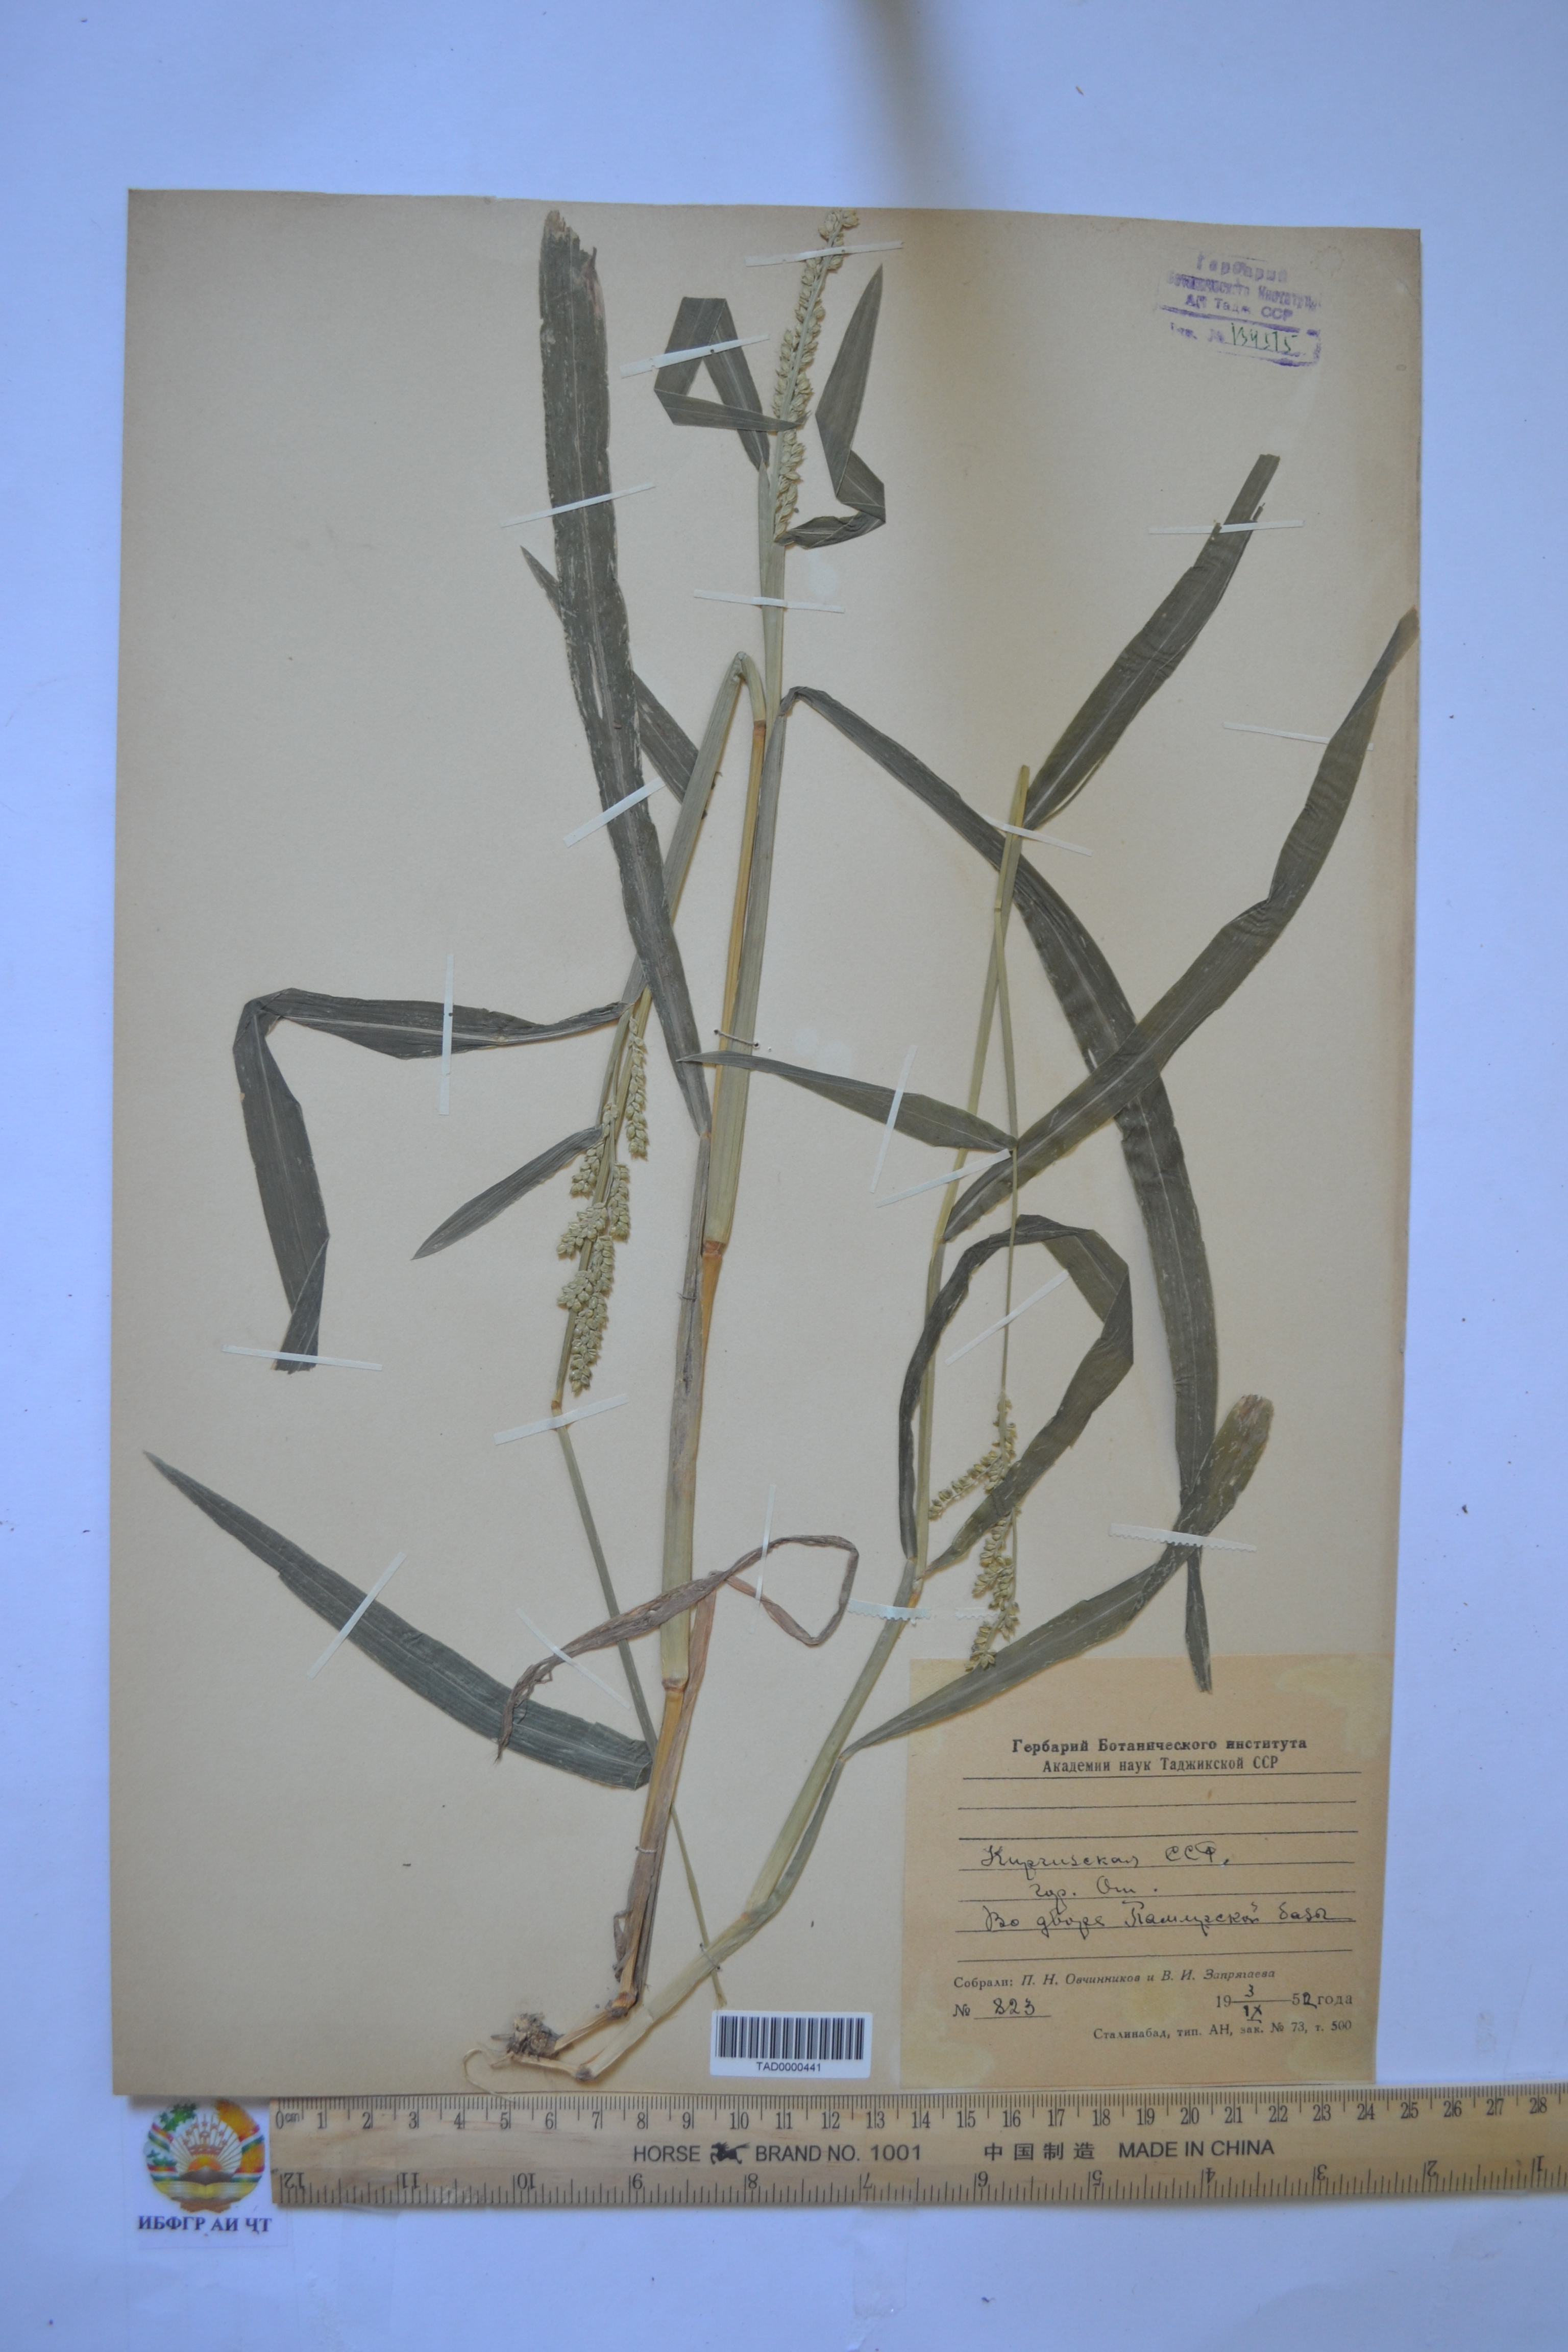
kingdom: Plantae
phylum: Tracheophyta
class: Liliopsida
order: Poales
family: Poaceae
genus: Echinochloa
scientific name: Echinochloa crus-galli
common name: Cockspur
